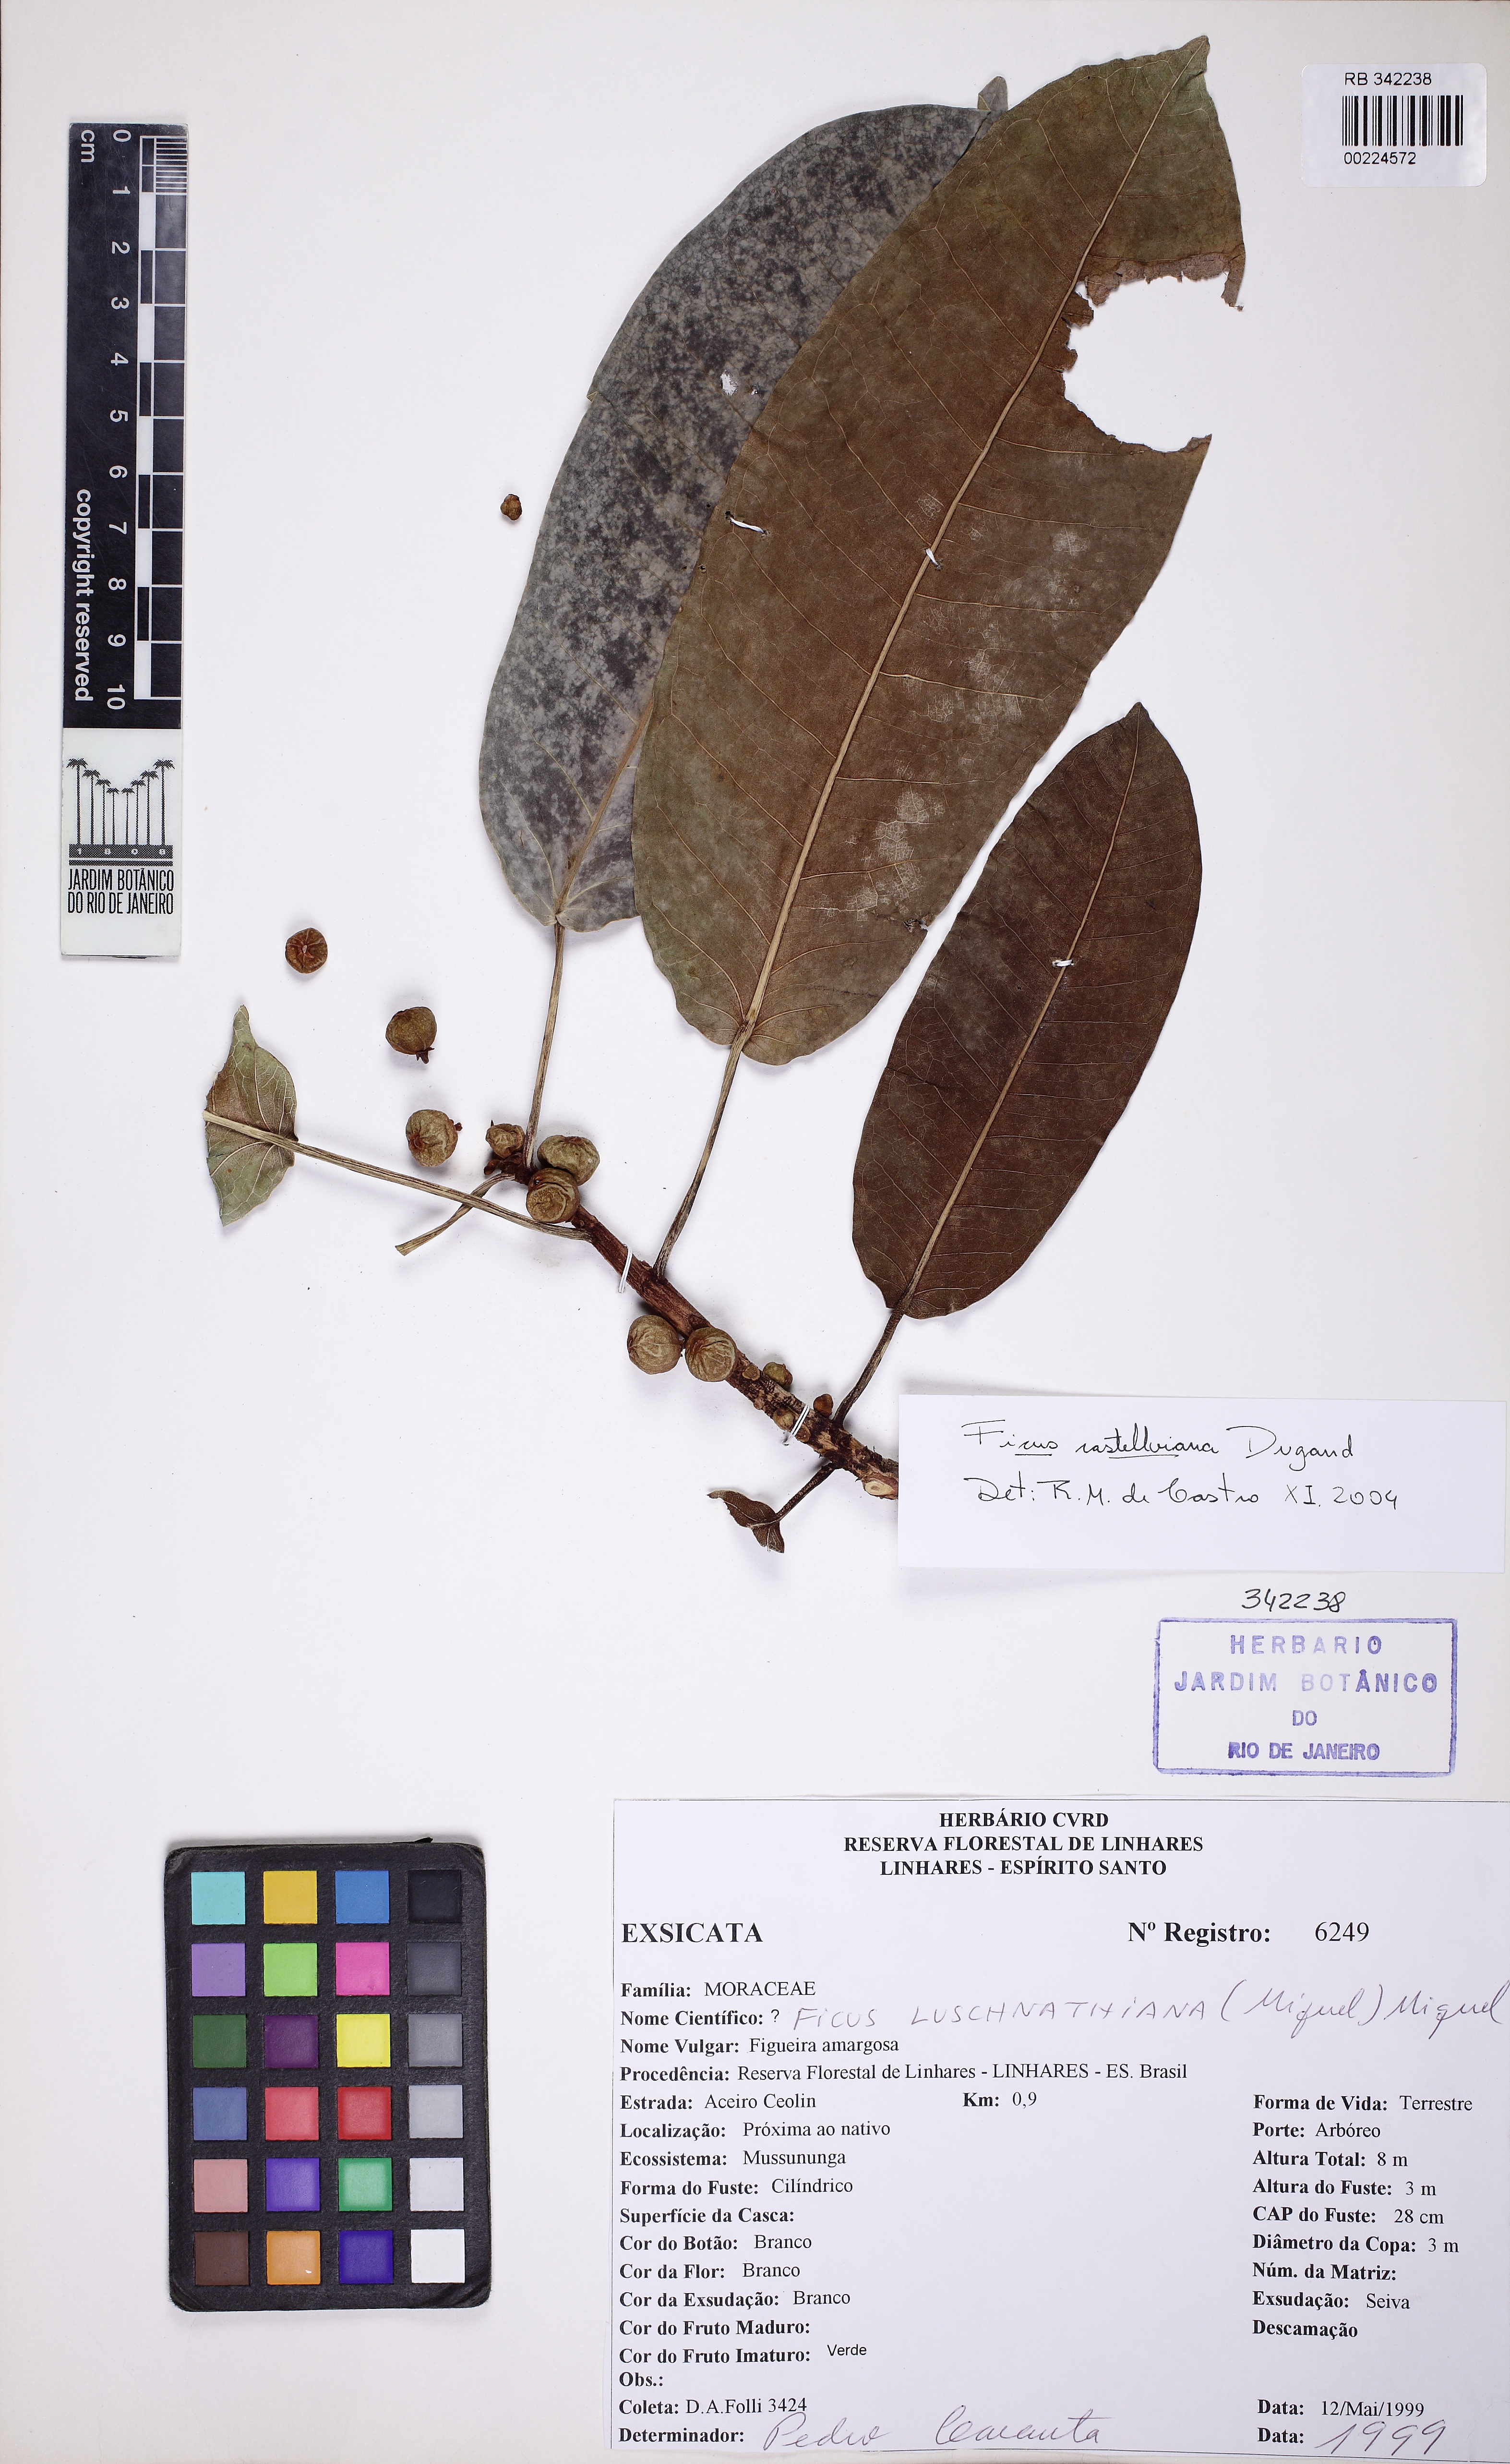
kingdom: Plantae
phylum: Tracheophyta
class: Magnoliopsida
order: Rosales
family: Moraceae
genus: Ficus
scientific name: Ficus castellviana
